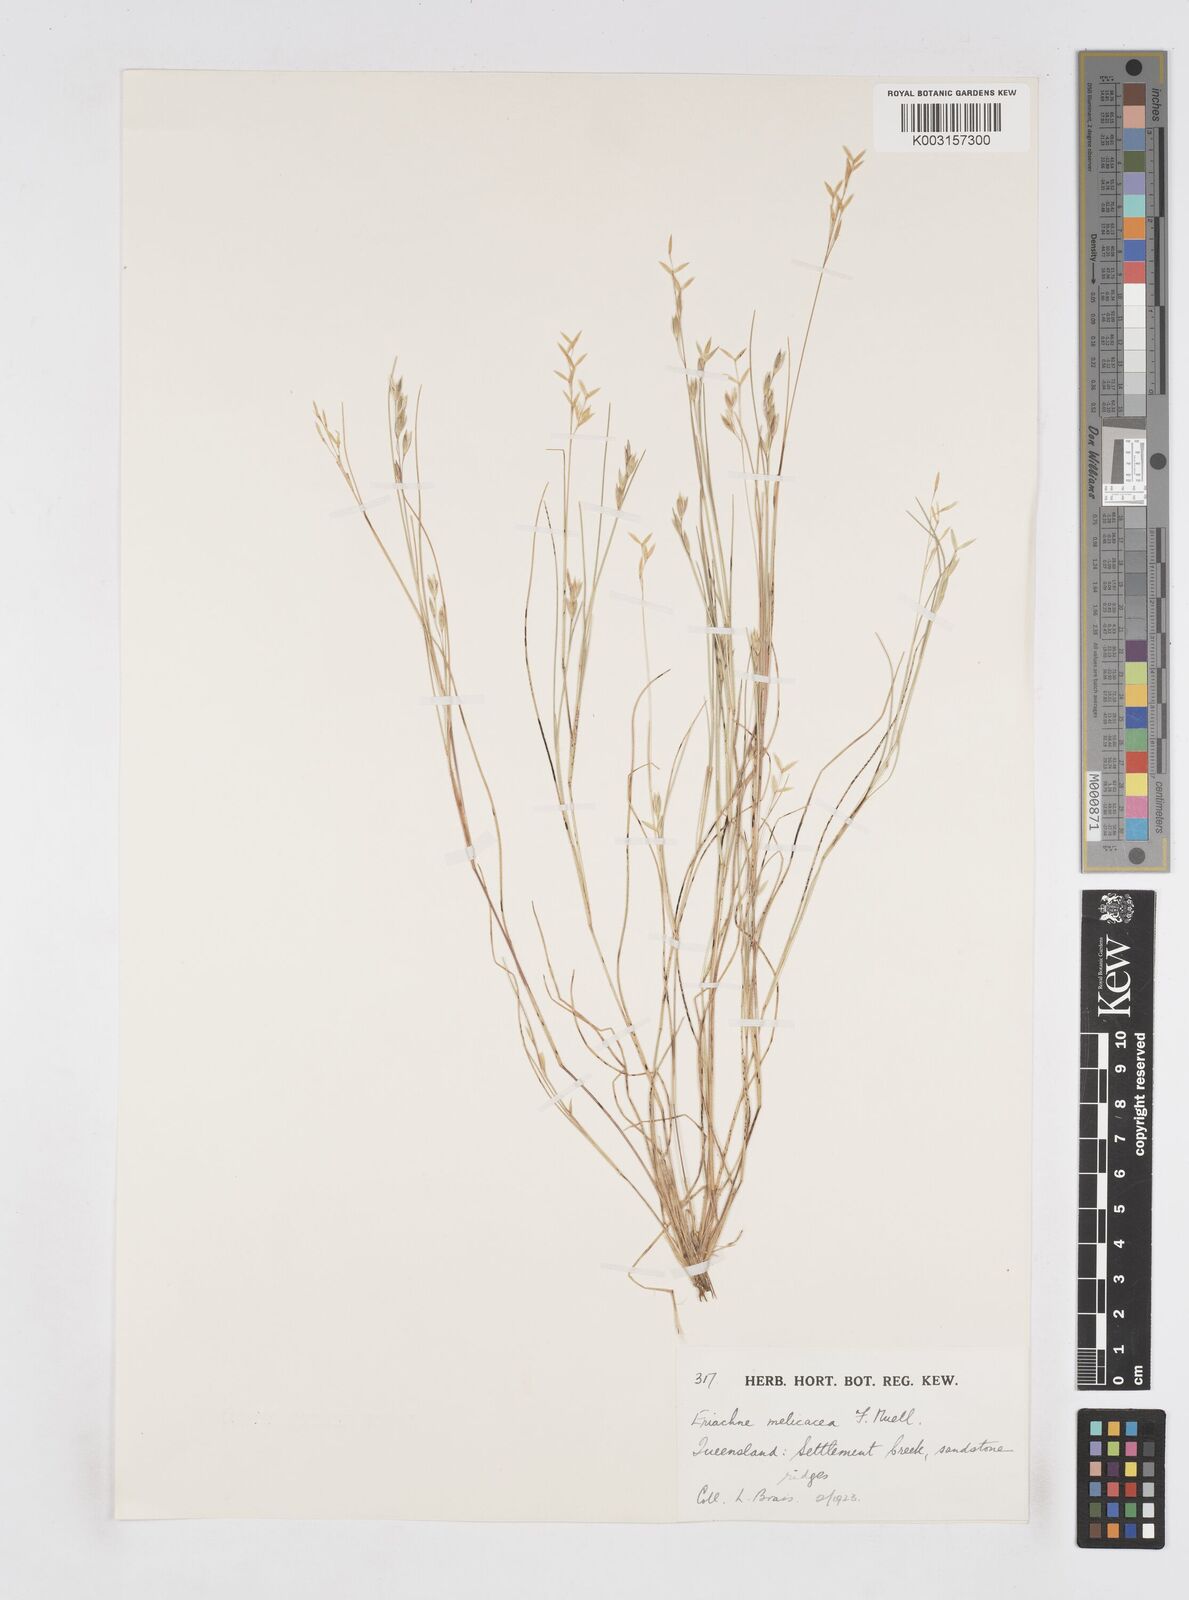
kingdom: Plantae
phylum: Tracheophyta
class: Liliopsida
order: Poales
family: Poaceae
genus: Eriachne
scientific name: Eriachne melicacea
